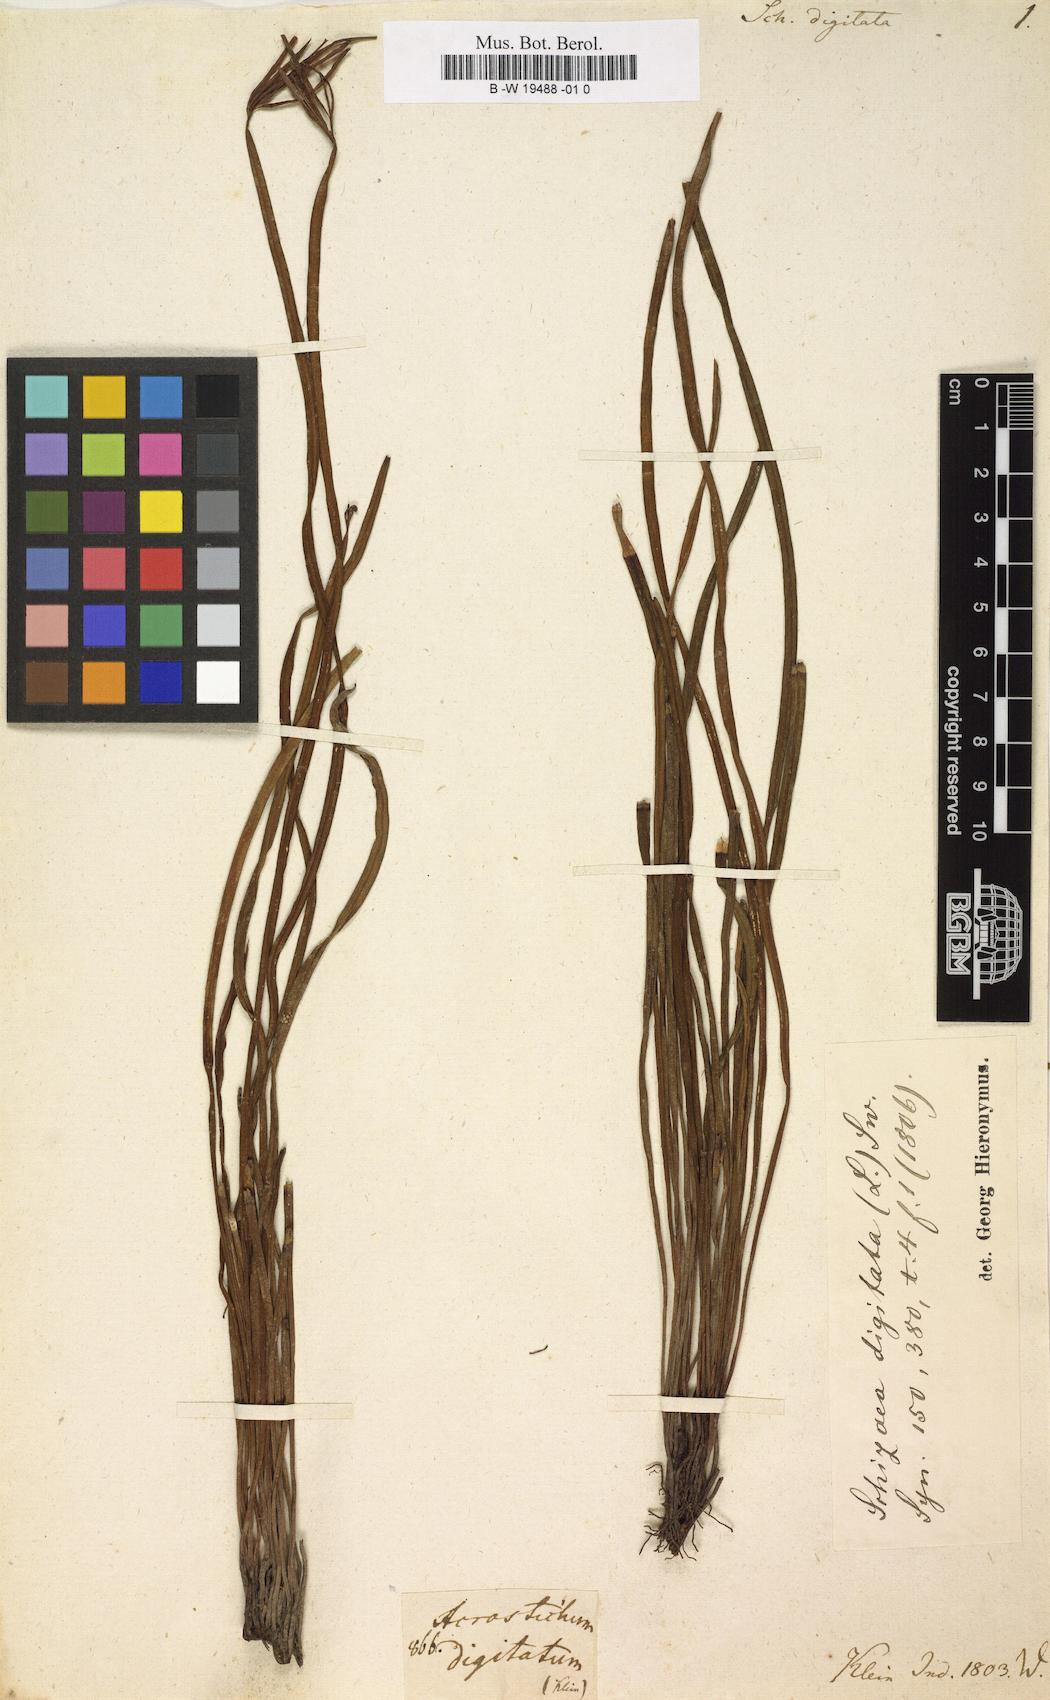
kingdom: Plantae
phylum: Tracheophyta
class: Polypodiopsida
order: Schizaeales
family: Schizaeaceae
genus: Actinostachys
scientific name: Actinostachys digitata
